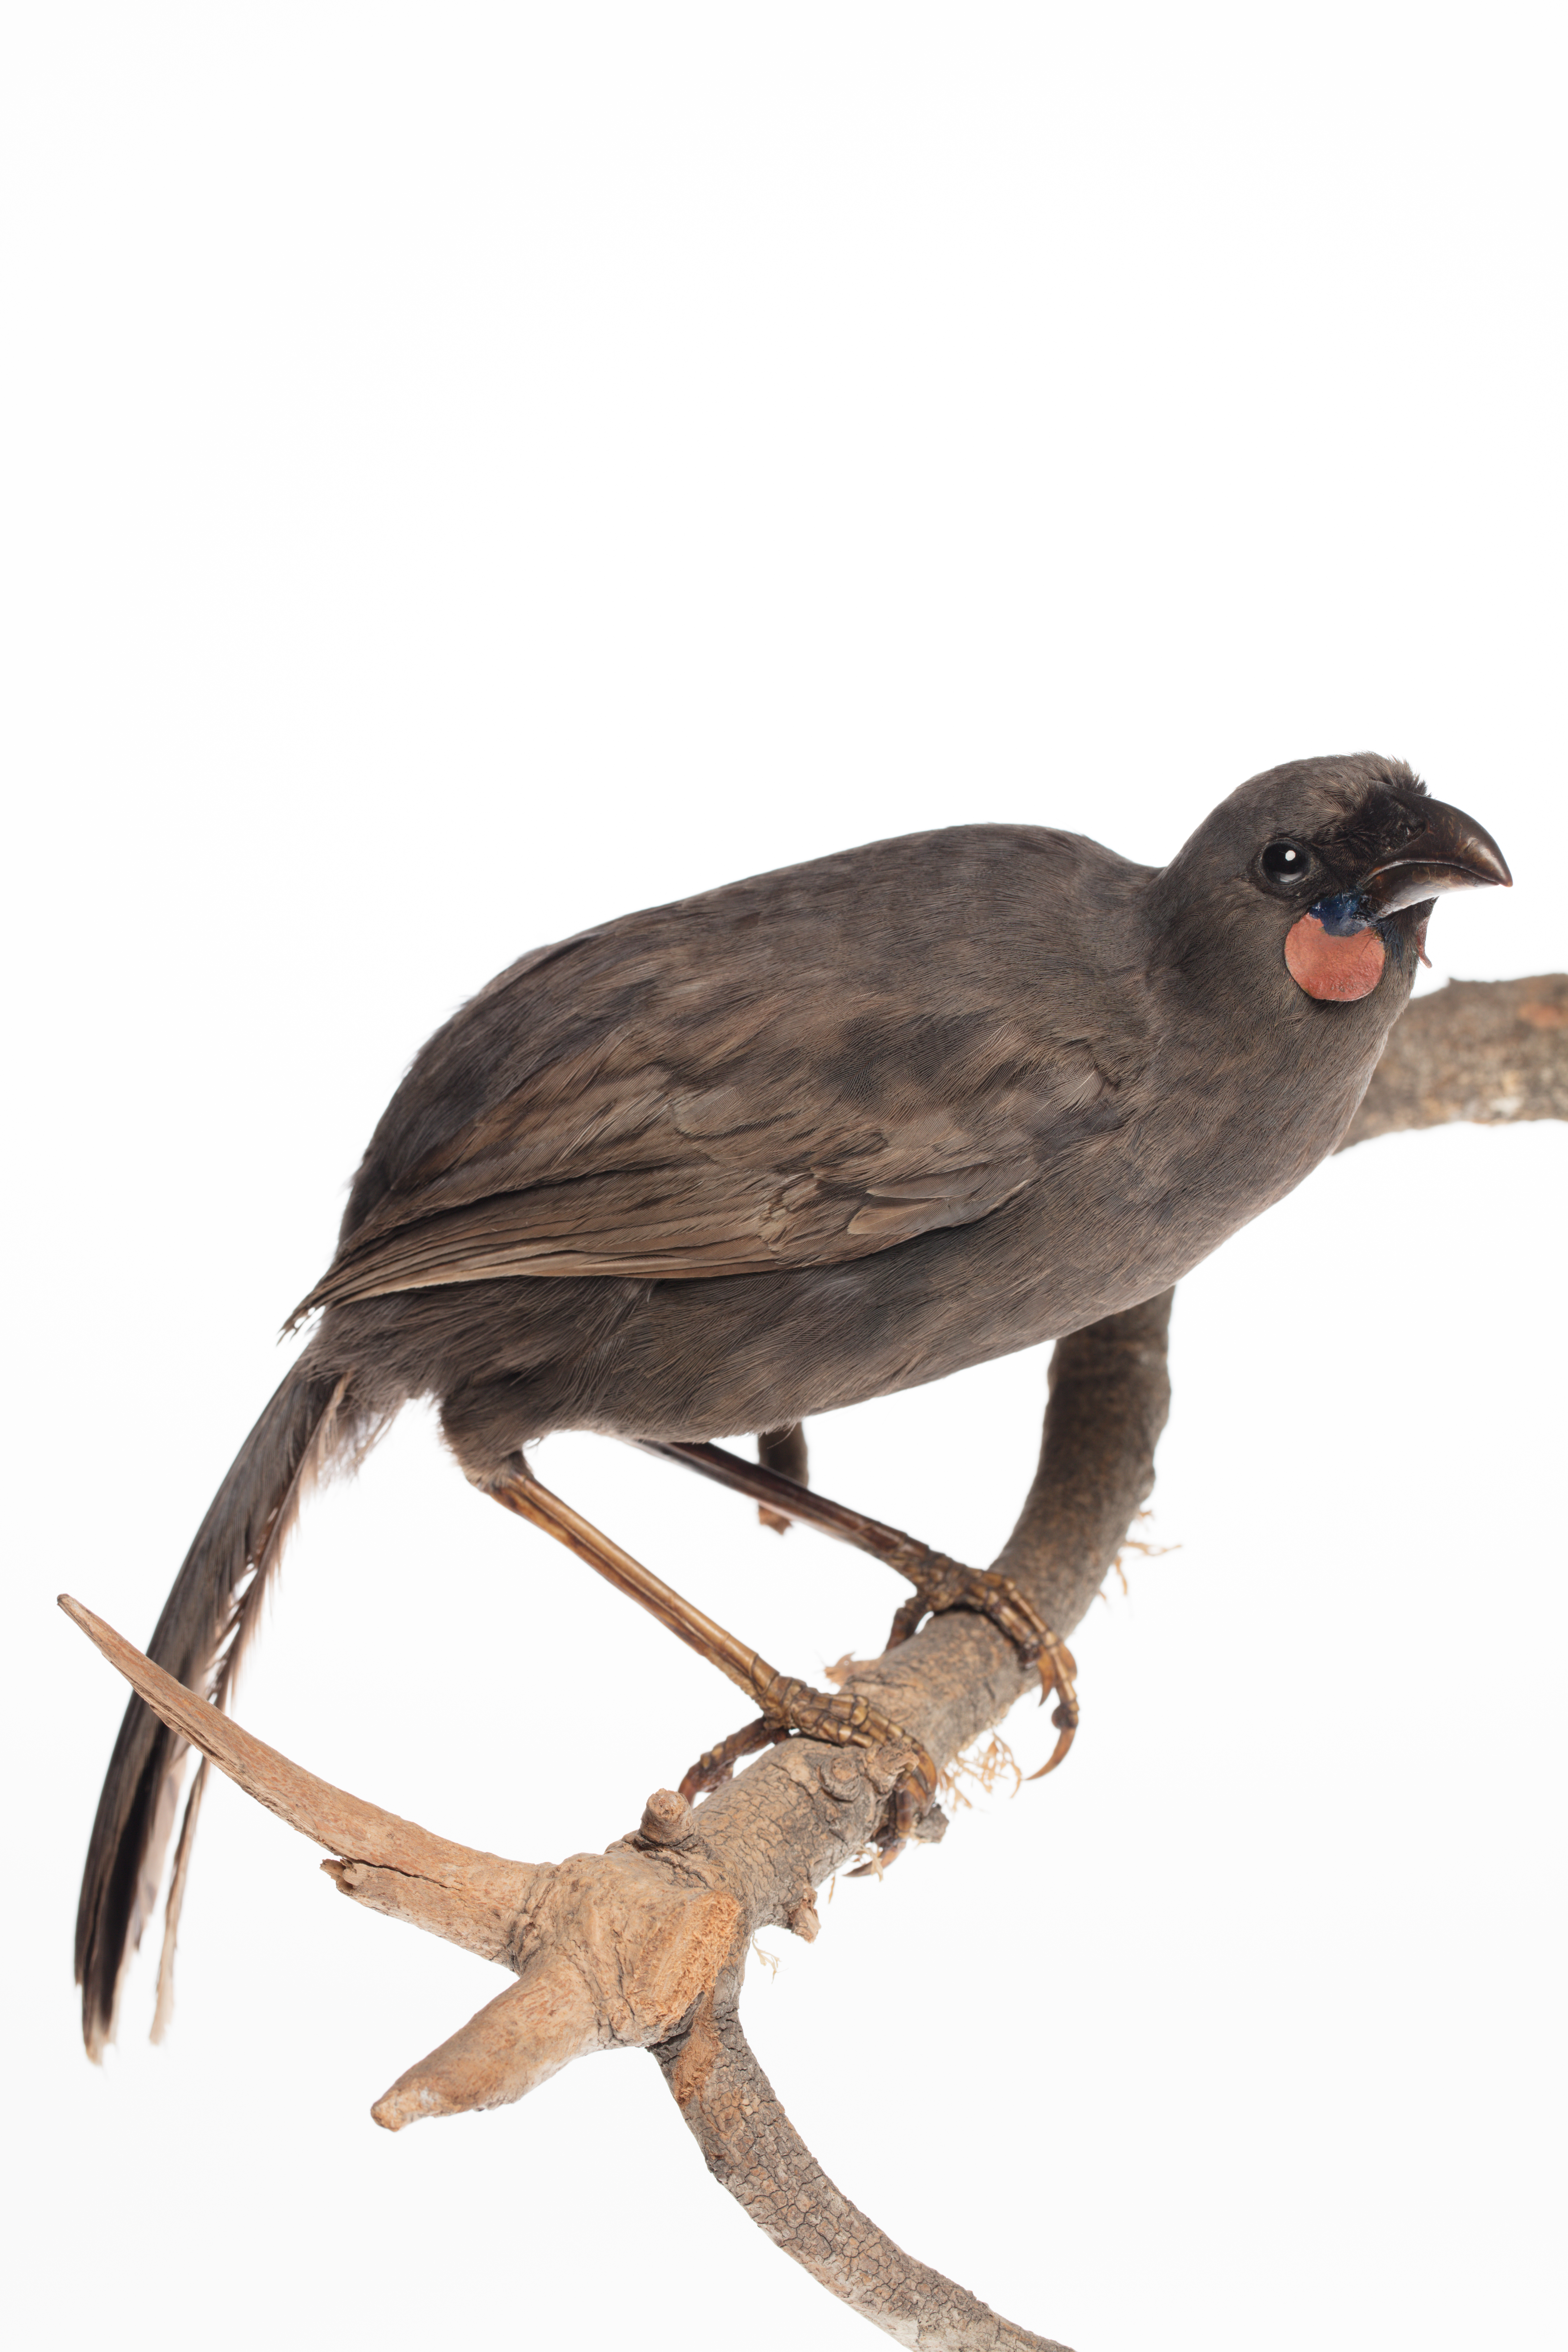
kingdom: Animalia
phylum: Chordata
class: Aves
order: Passeriformes
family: Callaeatidae
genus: Callaeas
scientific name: Callaeas cinereus
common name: South island kokako
